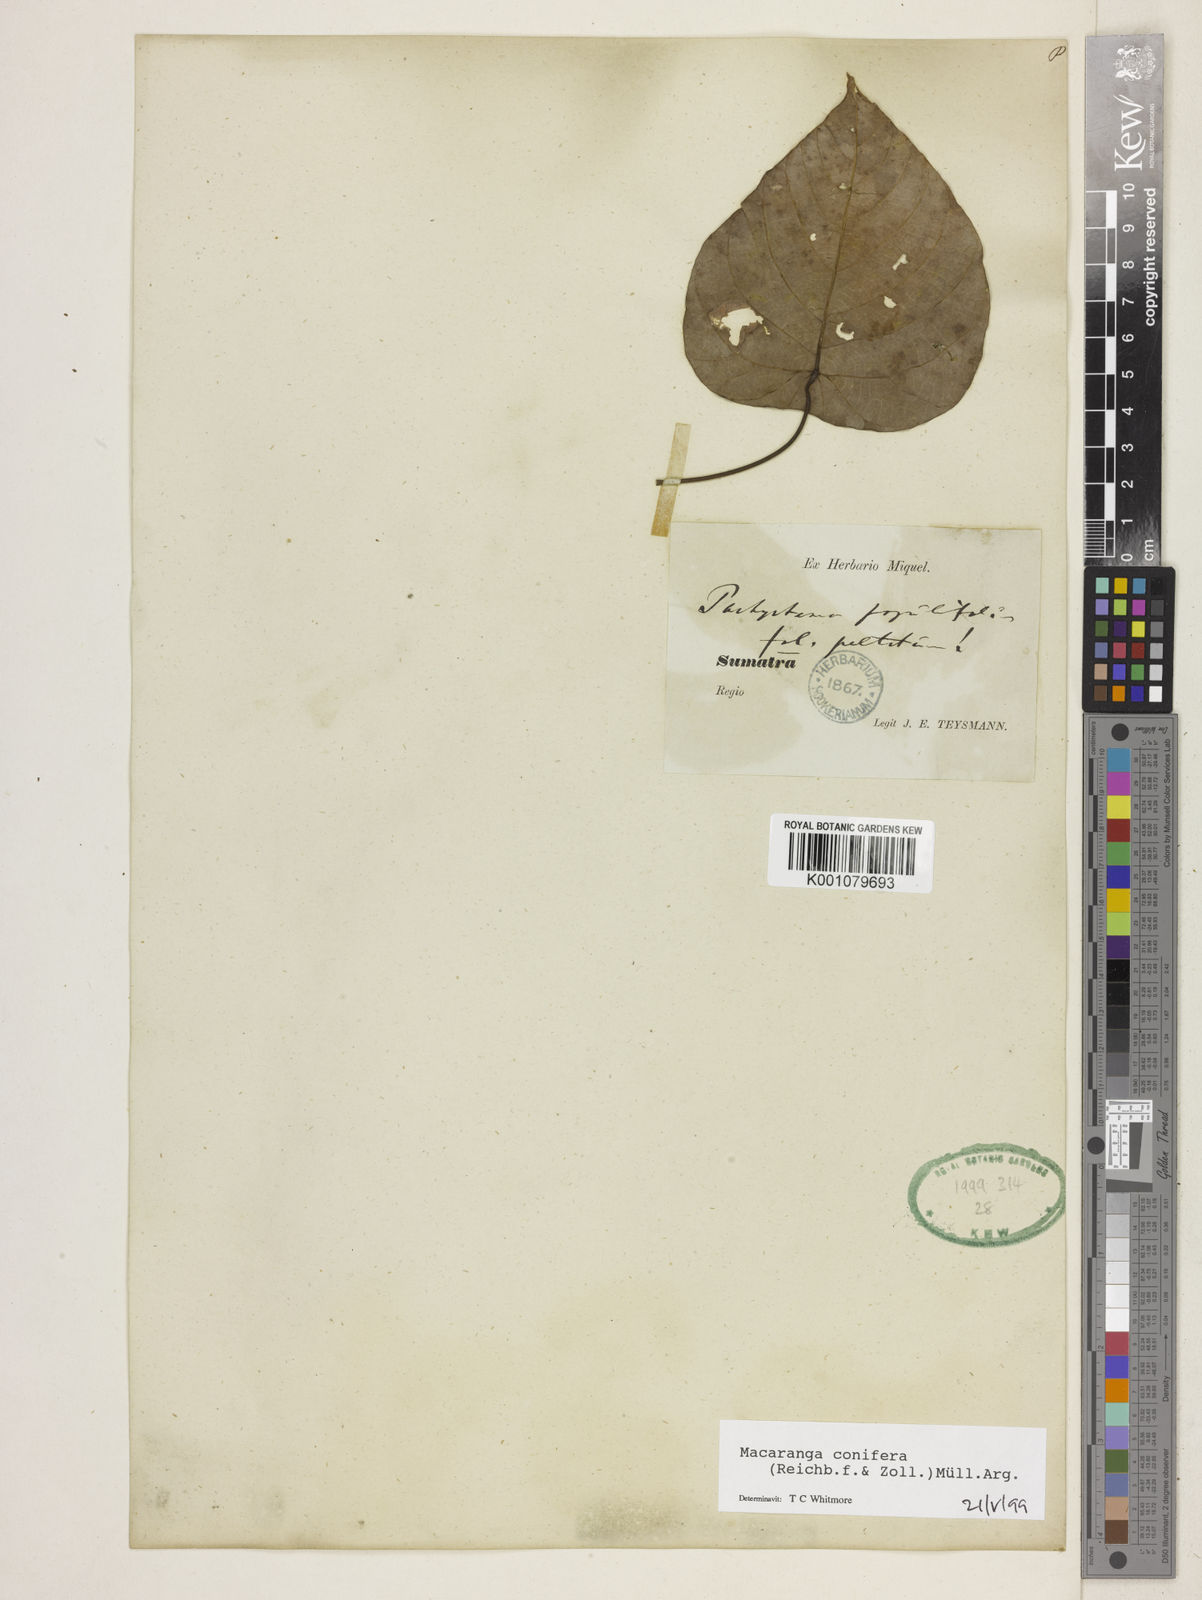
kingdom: Plantae
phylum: Tracheophyta
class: Magnoliopsida
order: Malpighiales
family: Euphorbiaceae
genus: Macaranga
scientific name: Macaranga conifera
